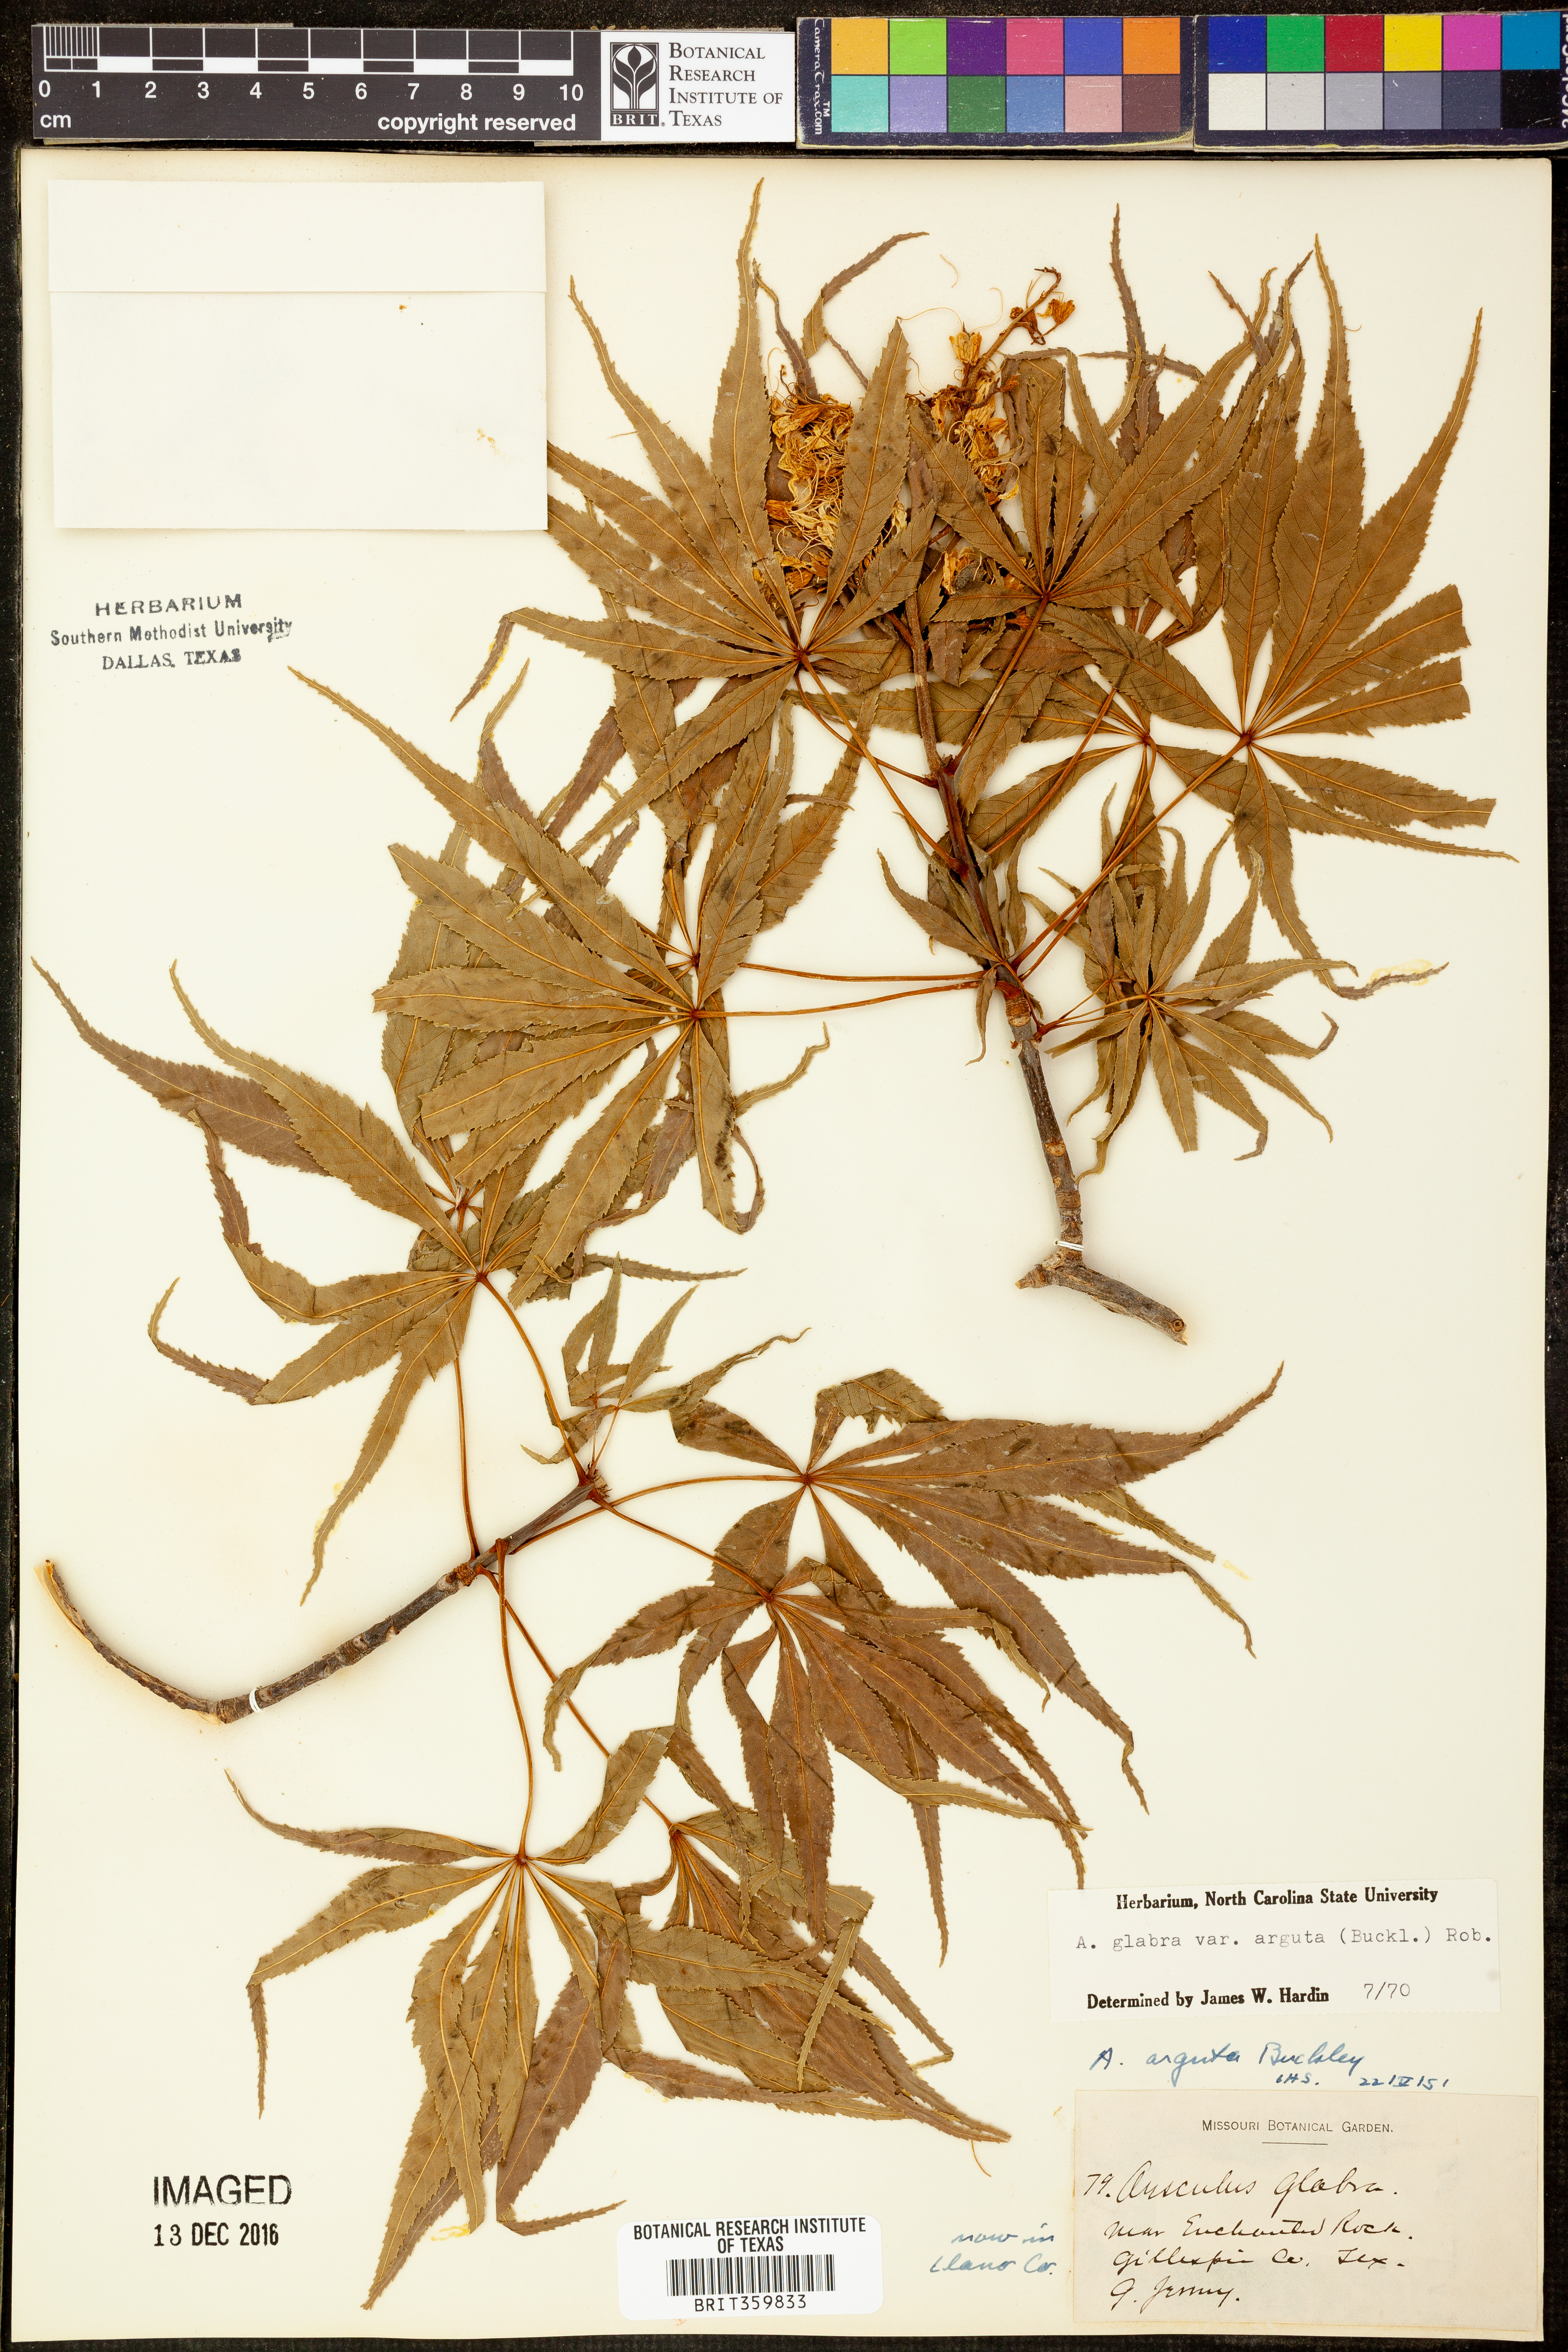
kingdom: Plantae
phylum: Tracheophyta
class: Magnoliopsida
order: Sapindales
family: Sapindaceae
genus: Aesculus
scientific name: Aesculus glabra
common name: Ohio buckeye
